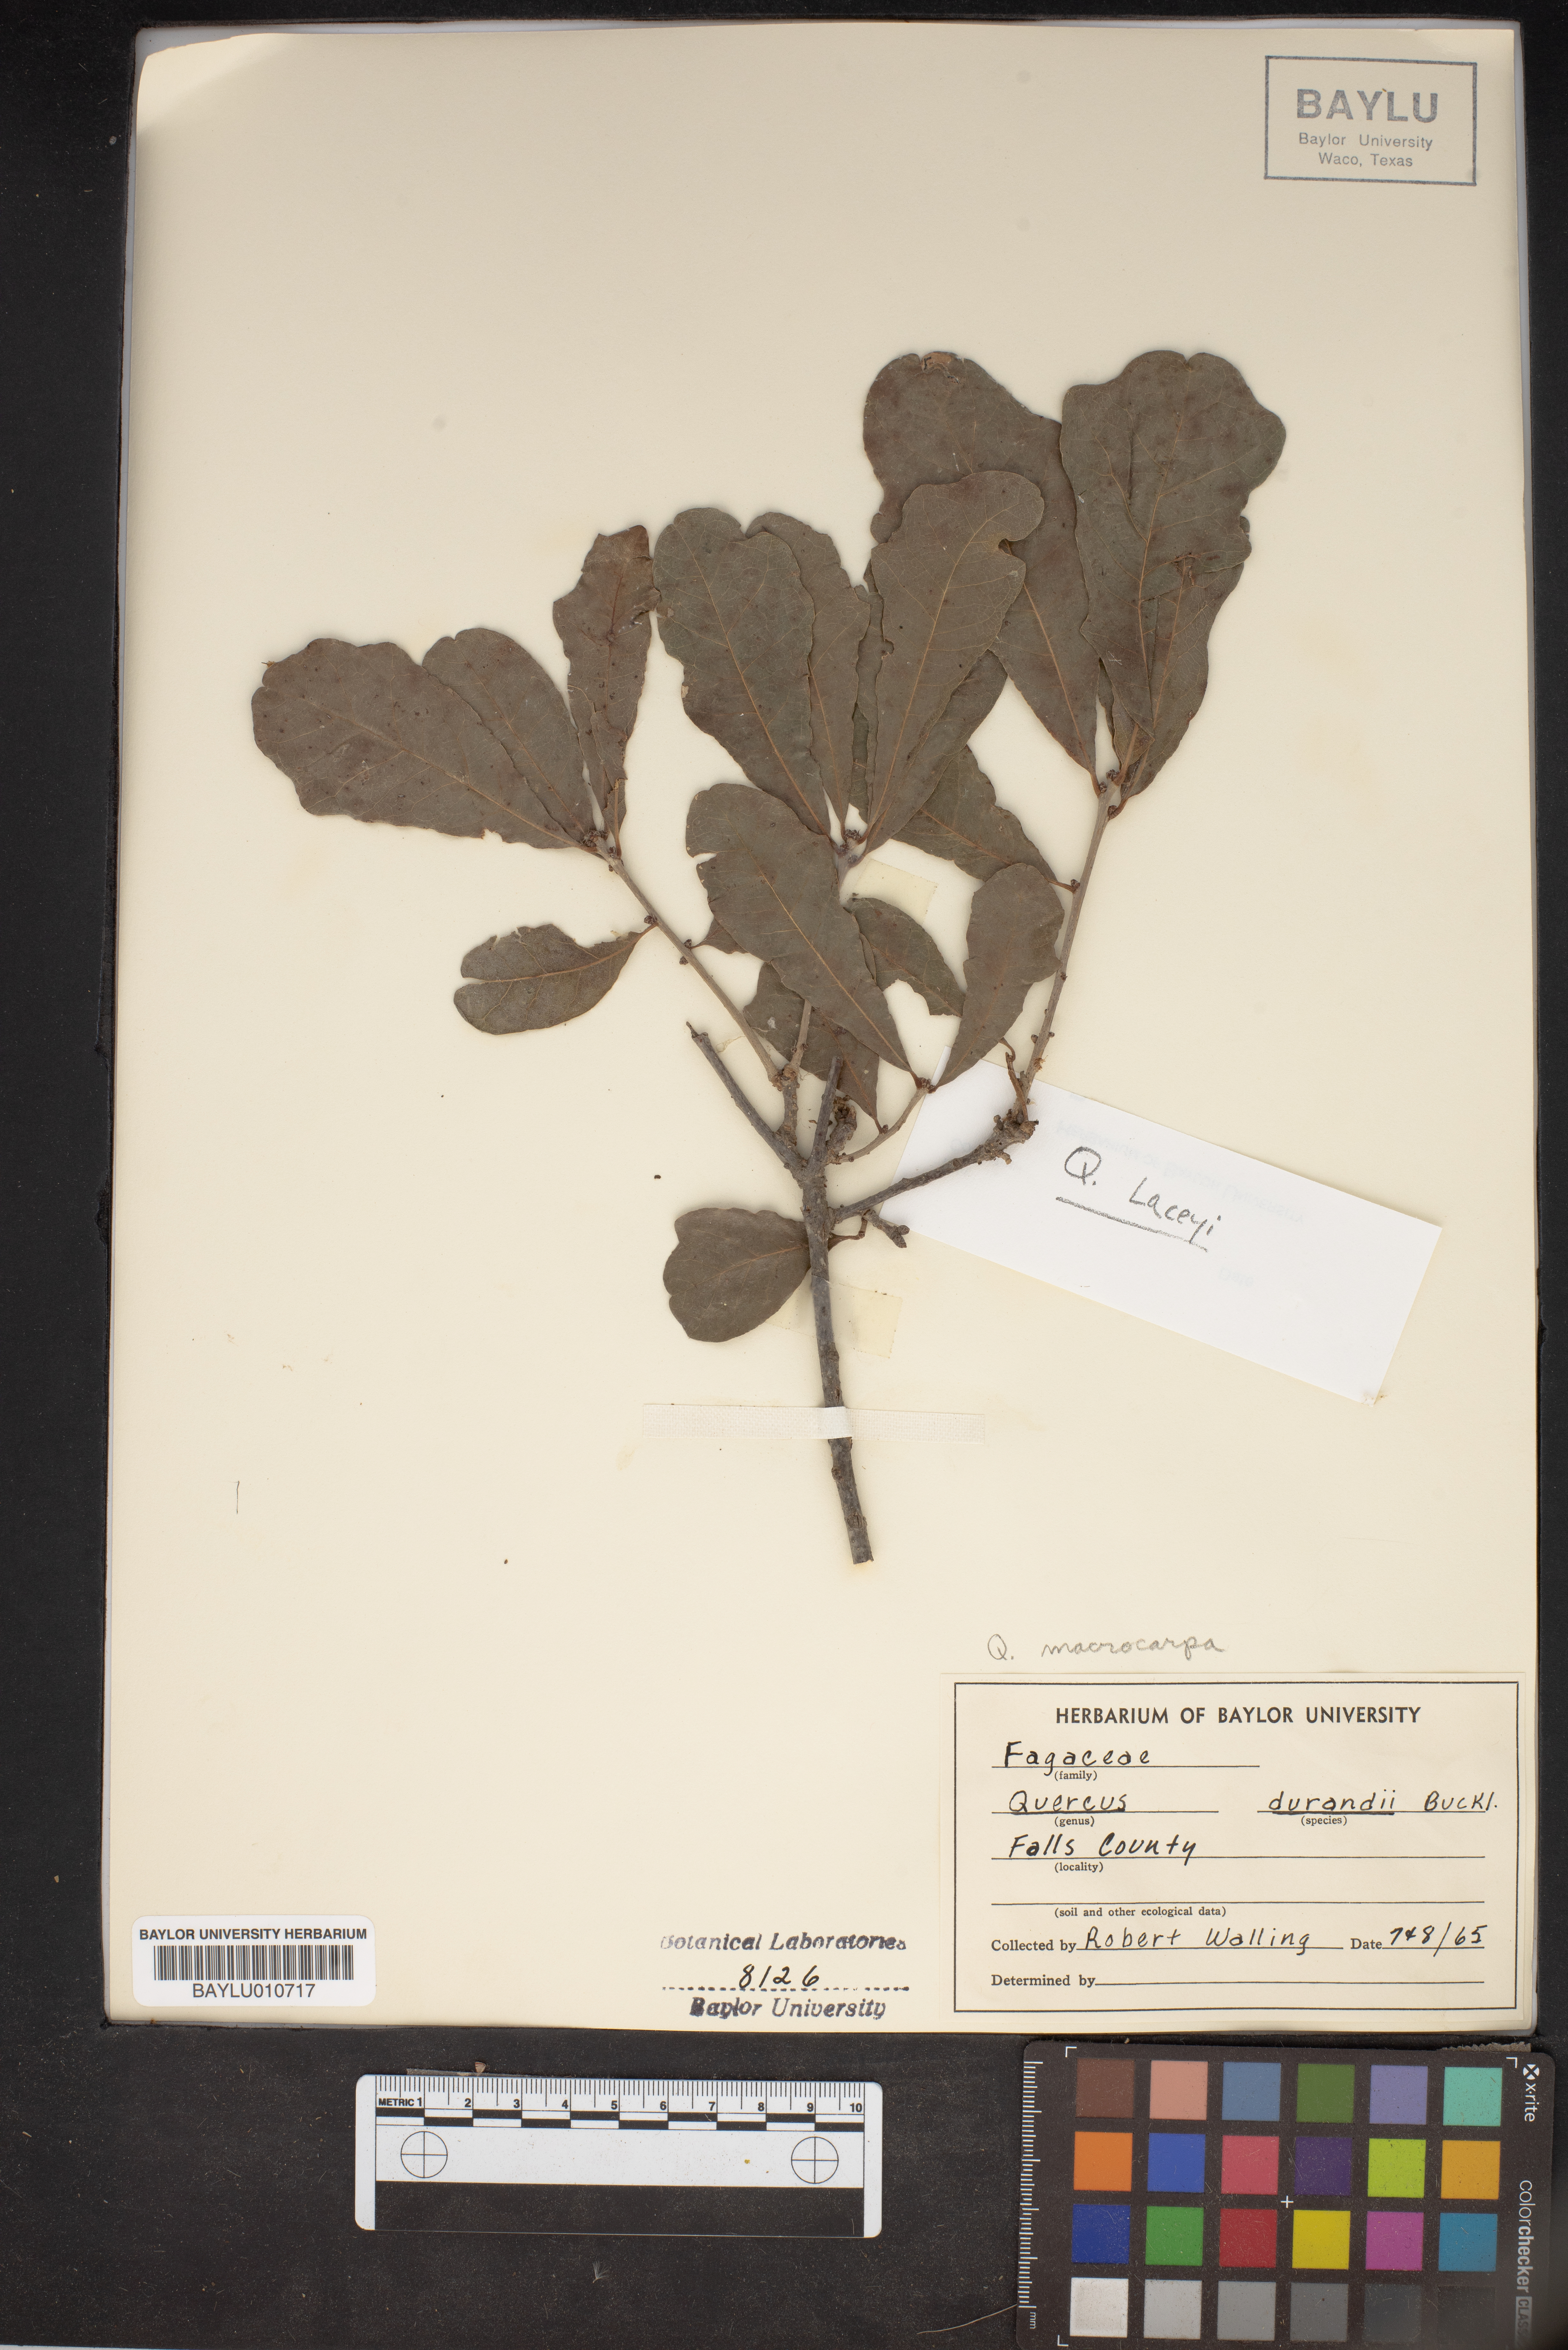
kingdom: Plantae
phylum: Tracheophyta
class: Magnoliopsida
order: Fagales
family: Fagaceae
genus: Quercus
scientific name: Quercus sinuata
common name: Durand oak
